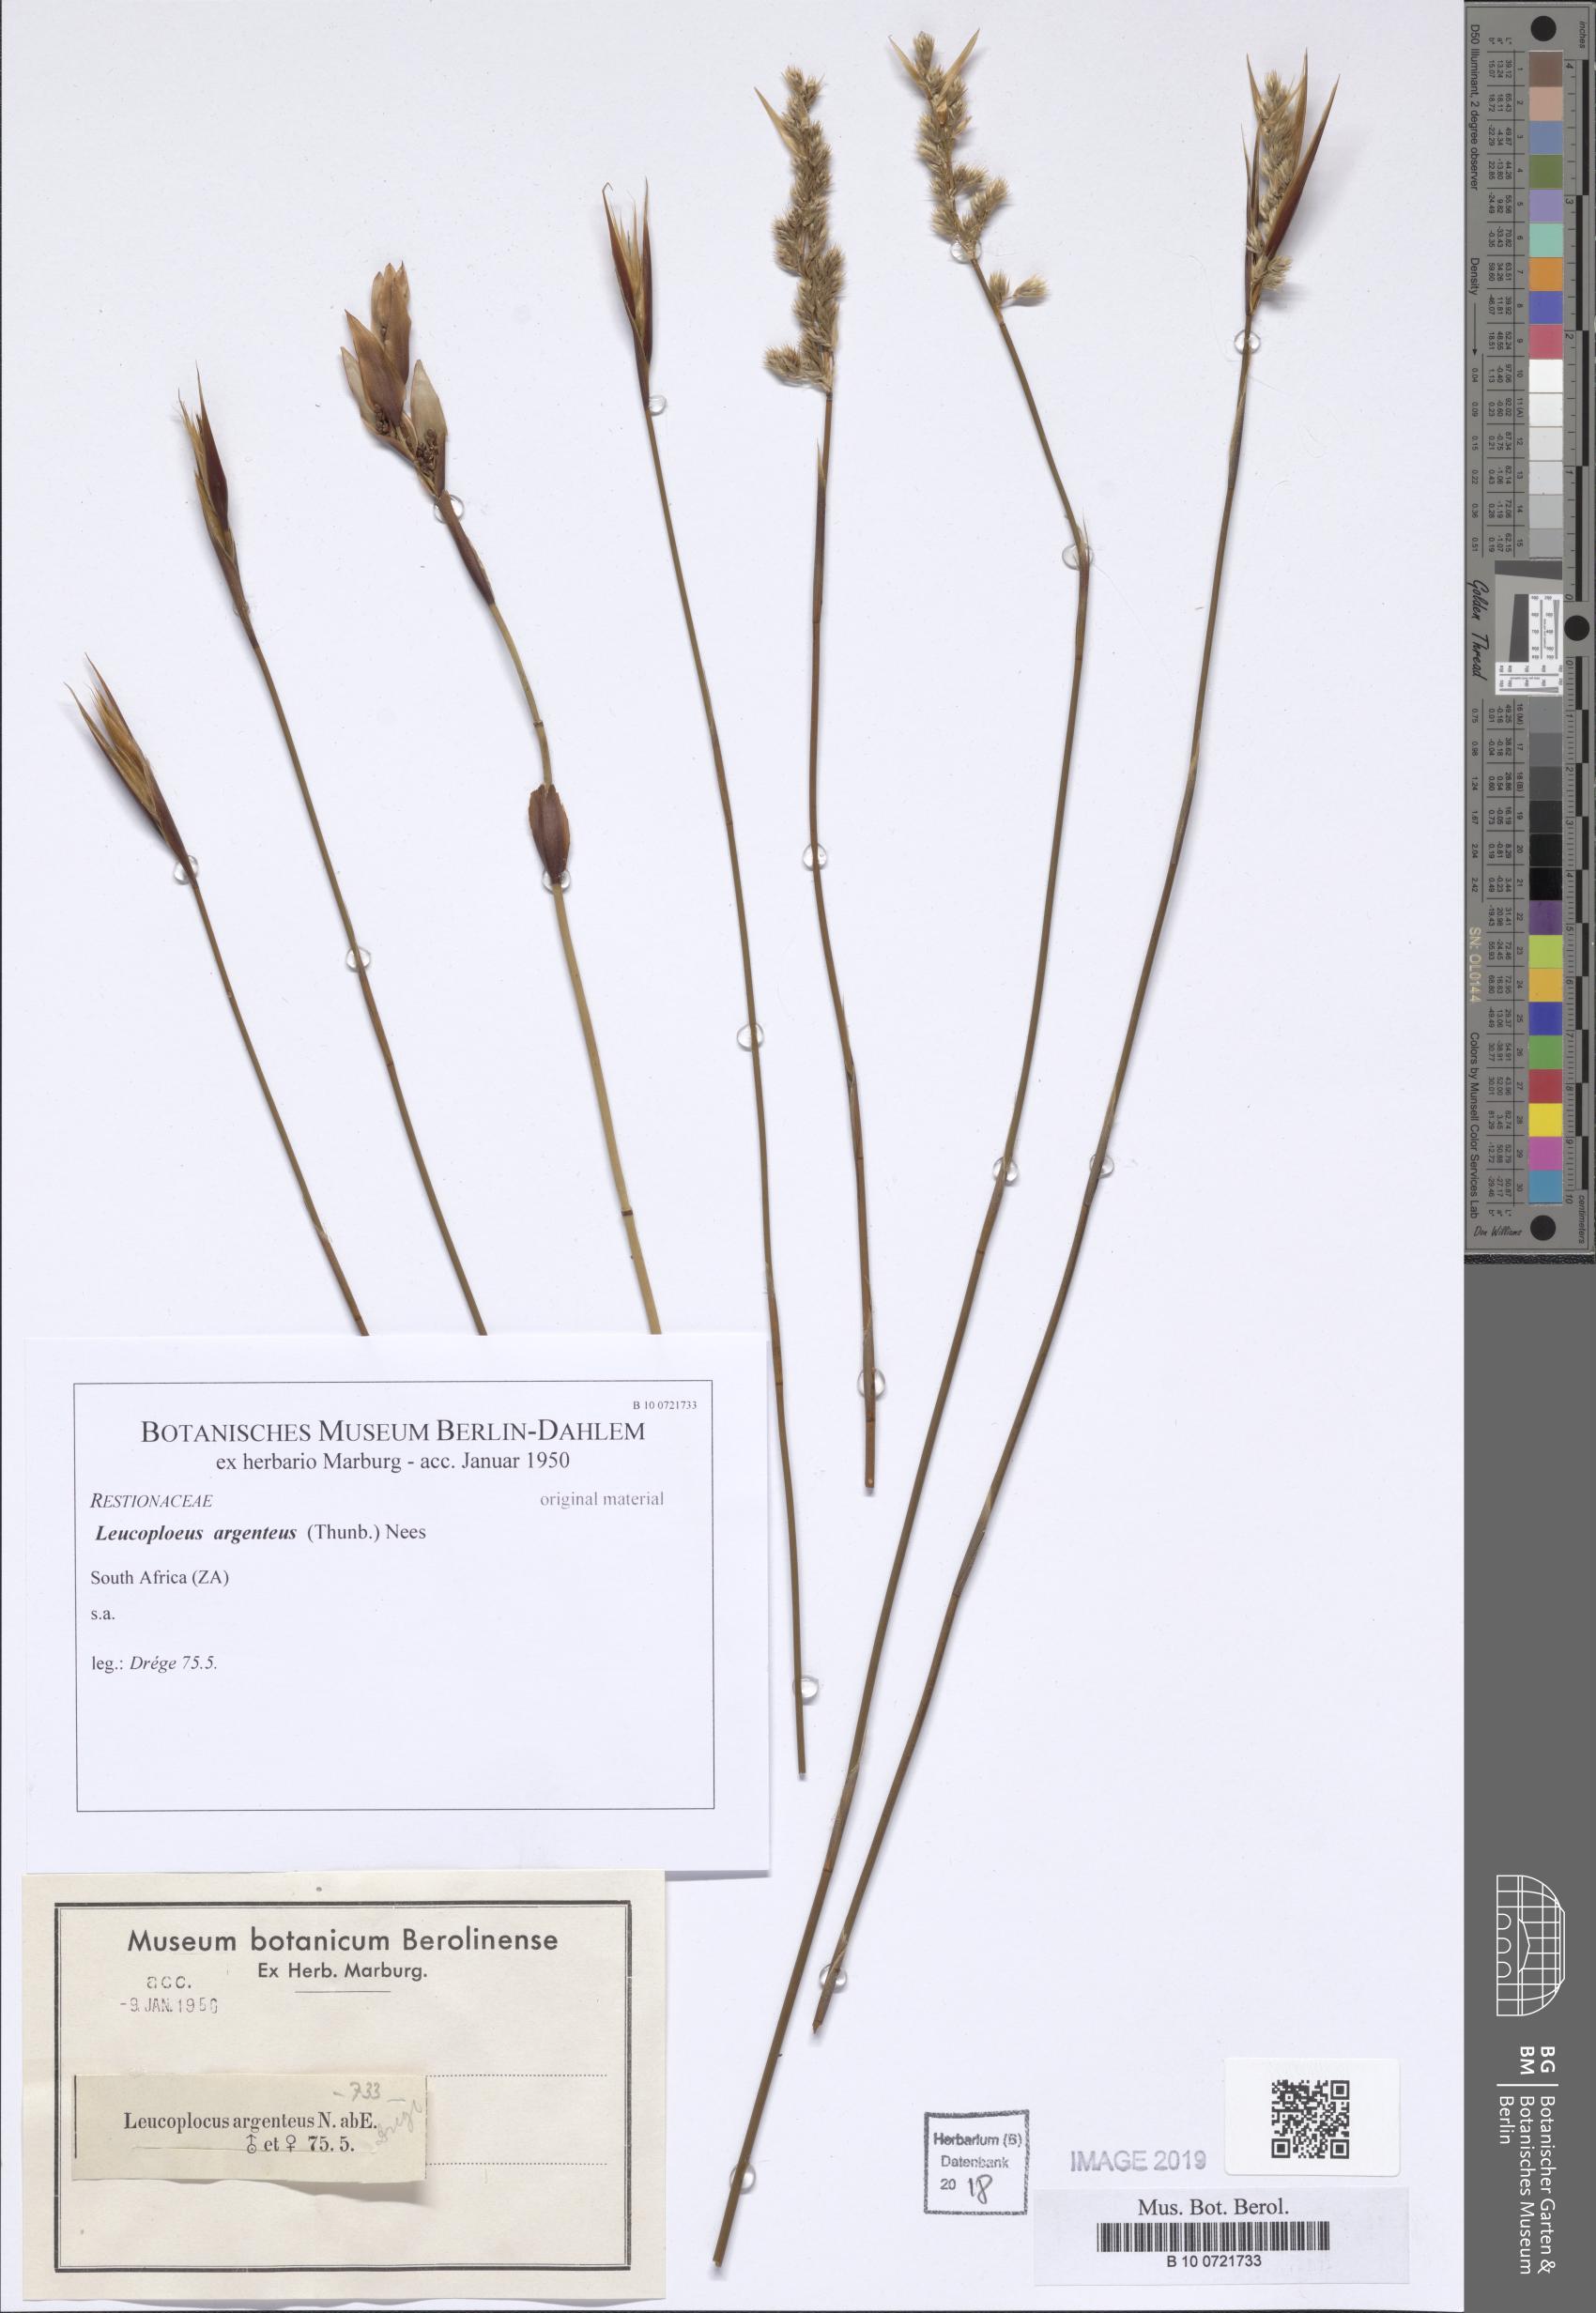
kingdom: Plantae
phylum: Tracheophyta
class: Liliopsida
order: Poales
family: Restionaceae
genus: Hypodiscus
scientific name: Hypodiscus argenteus
